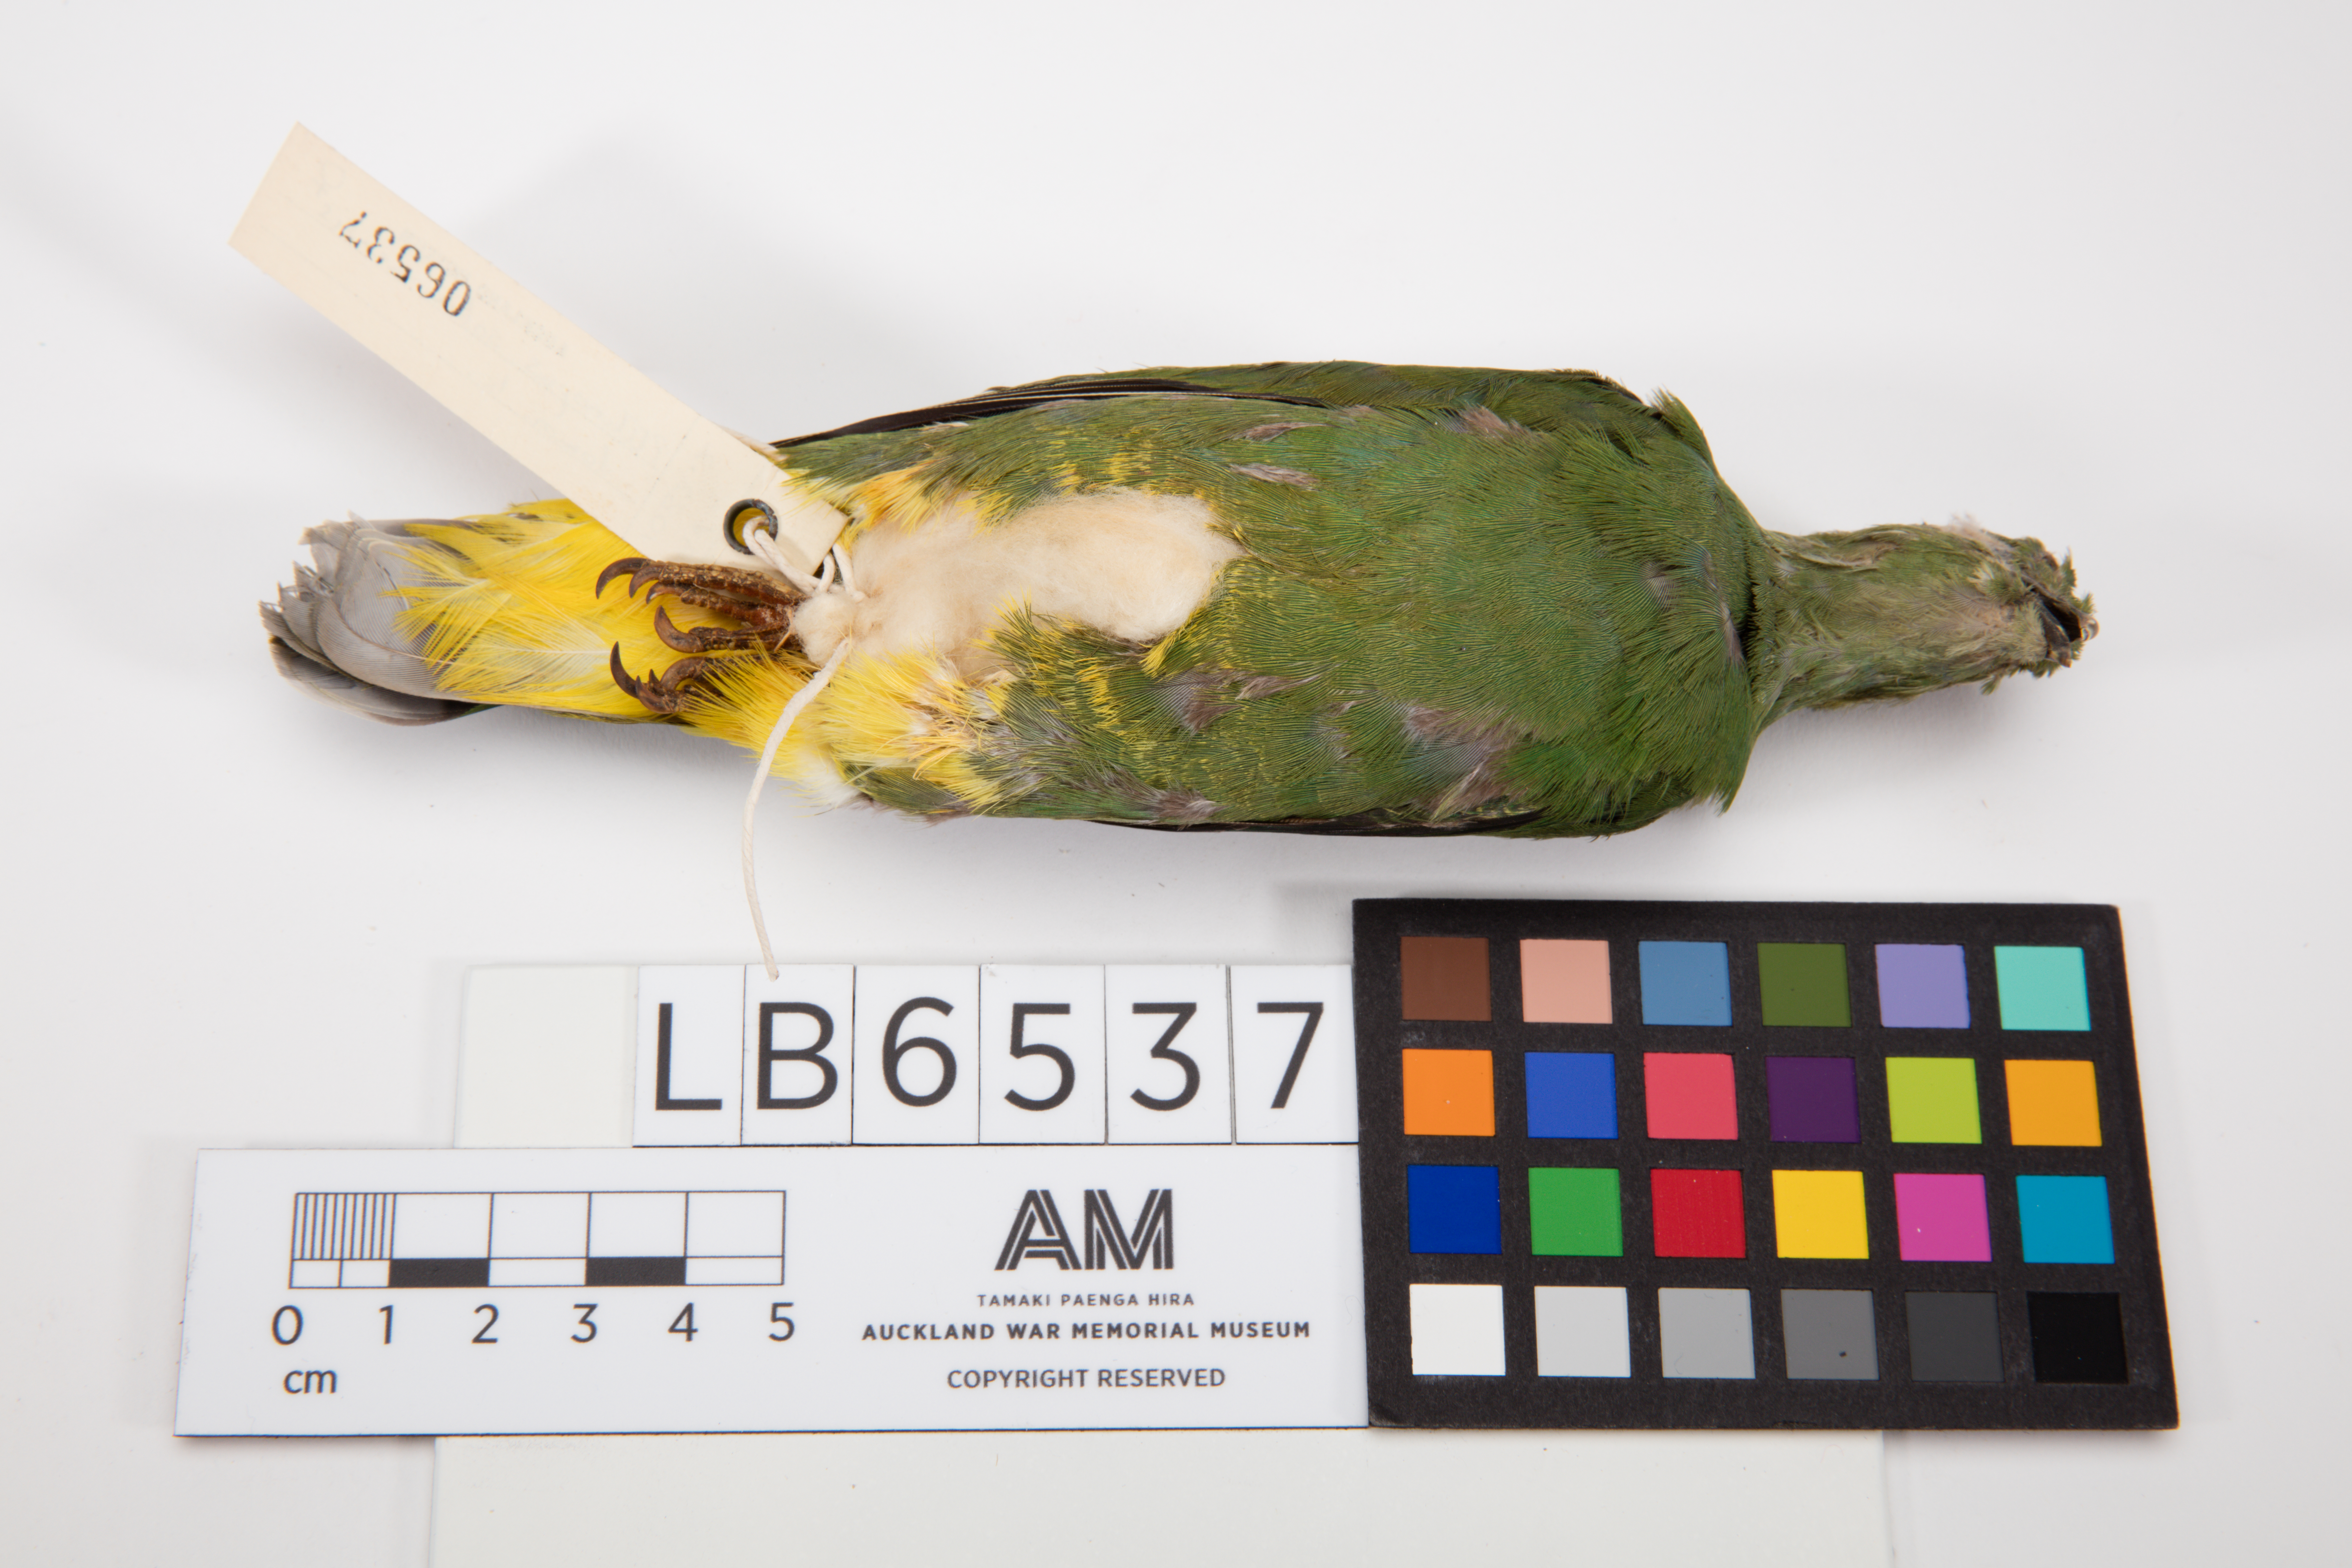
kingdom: Animalia
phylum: Chordata
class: Aves
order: Columbiformes
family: Columbidae
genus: Ptilinopus
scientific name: Ptilinopus solomonensis
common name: Yellow-bibbed fruit dove
